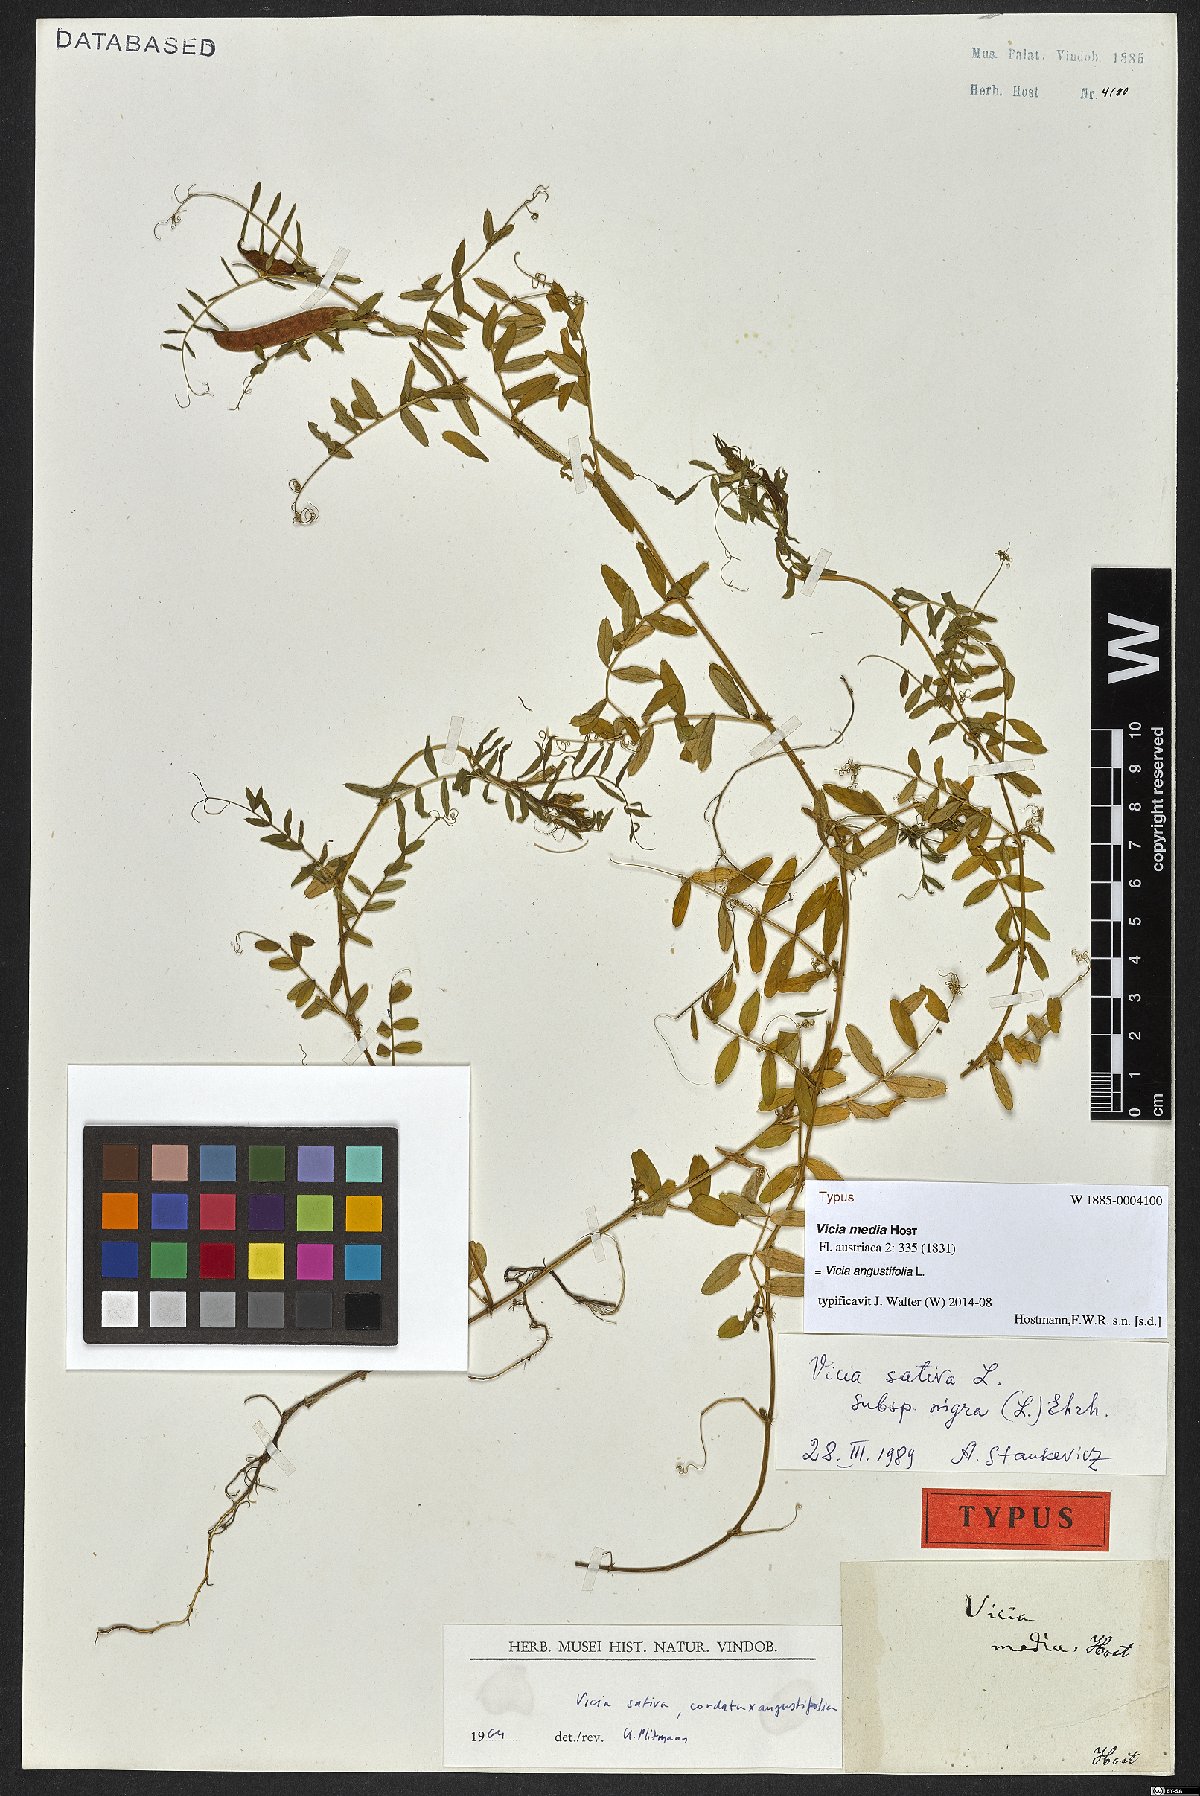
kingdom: Plantae
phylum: Tracheophyta
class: Magnoliopsida
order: Fabales
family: Fabaceae
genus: Vicia
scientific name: Vicia sativa
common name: Garden vetch
